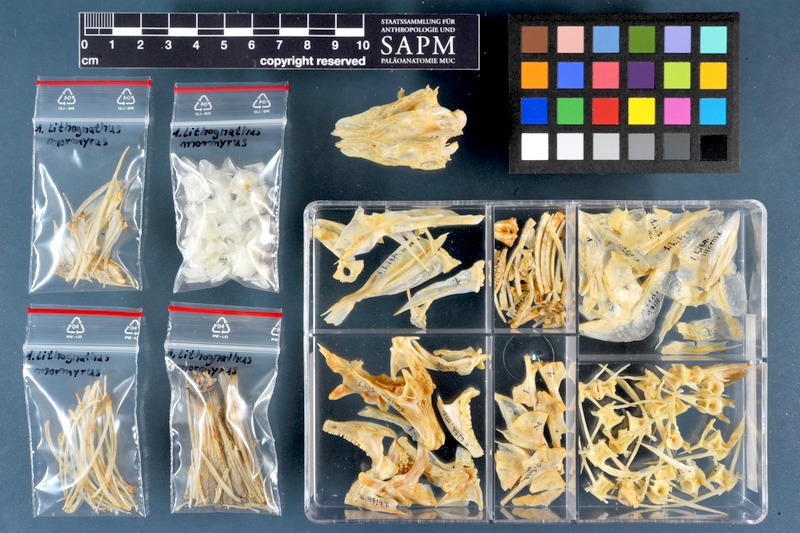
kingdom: Animalia
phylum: Chordata
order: Perciformes
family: Sparidae
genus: Lithognathus
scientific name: Lithognathus mormyrus
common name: Sand steenbras
